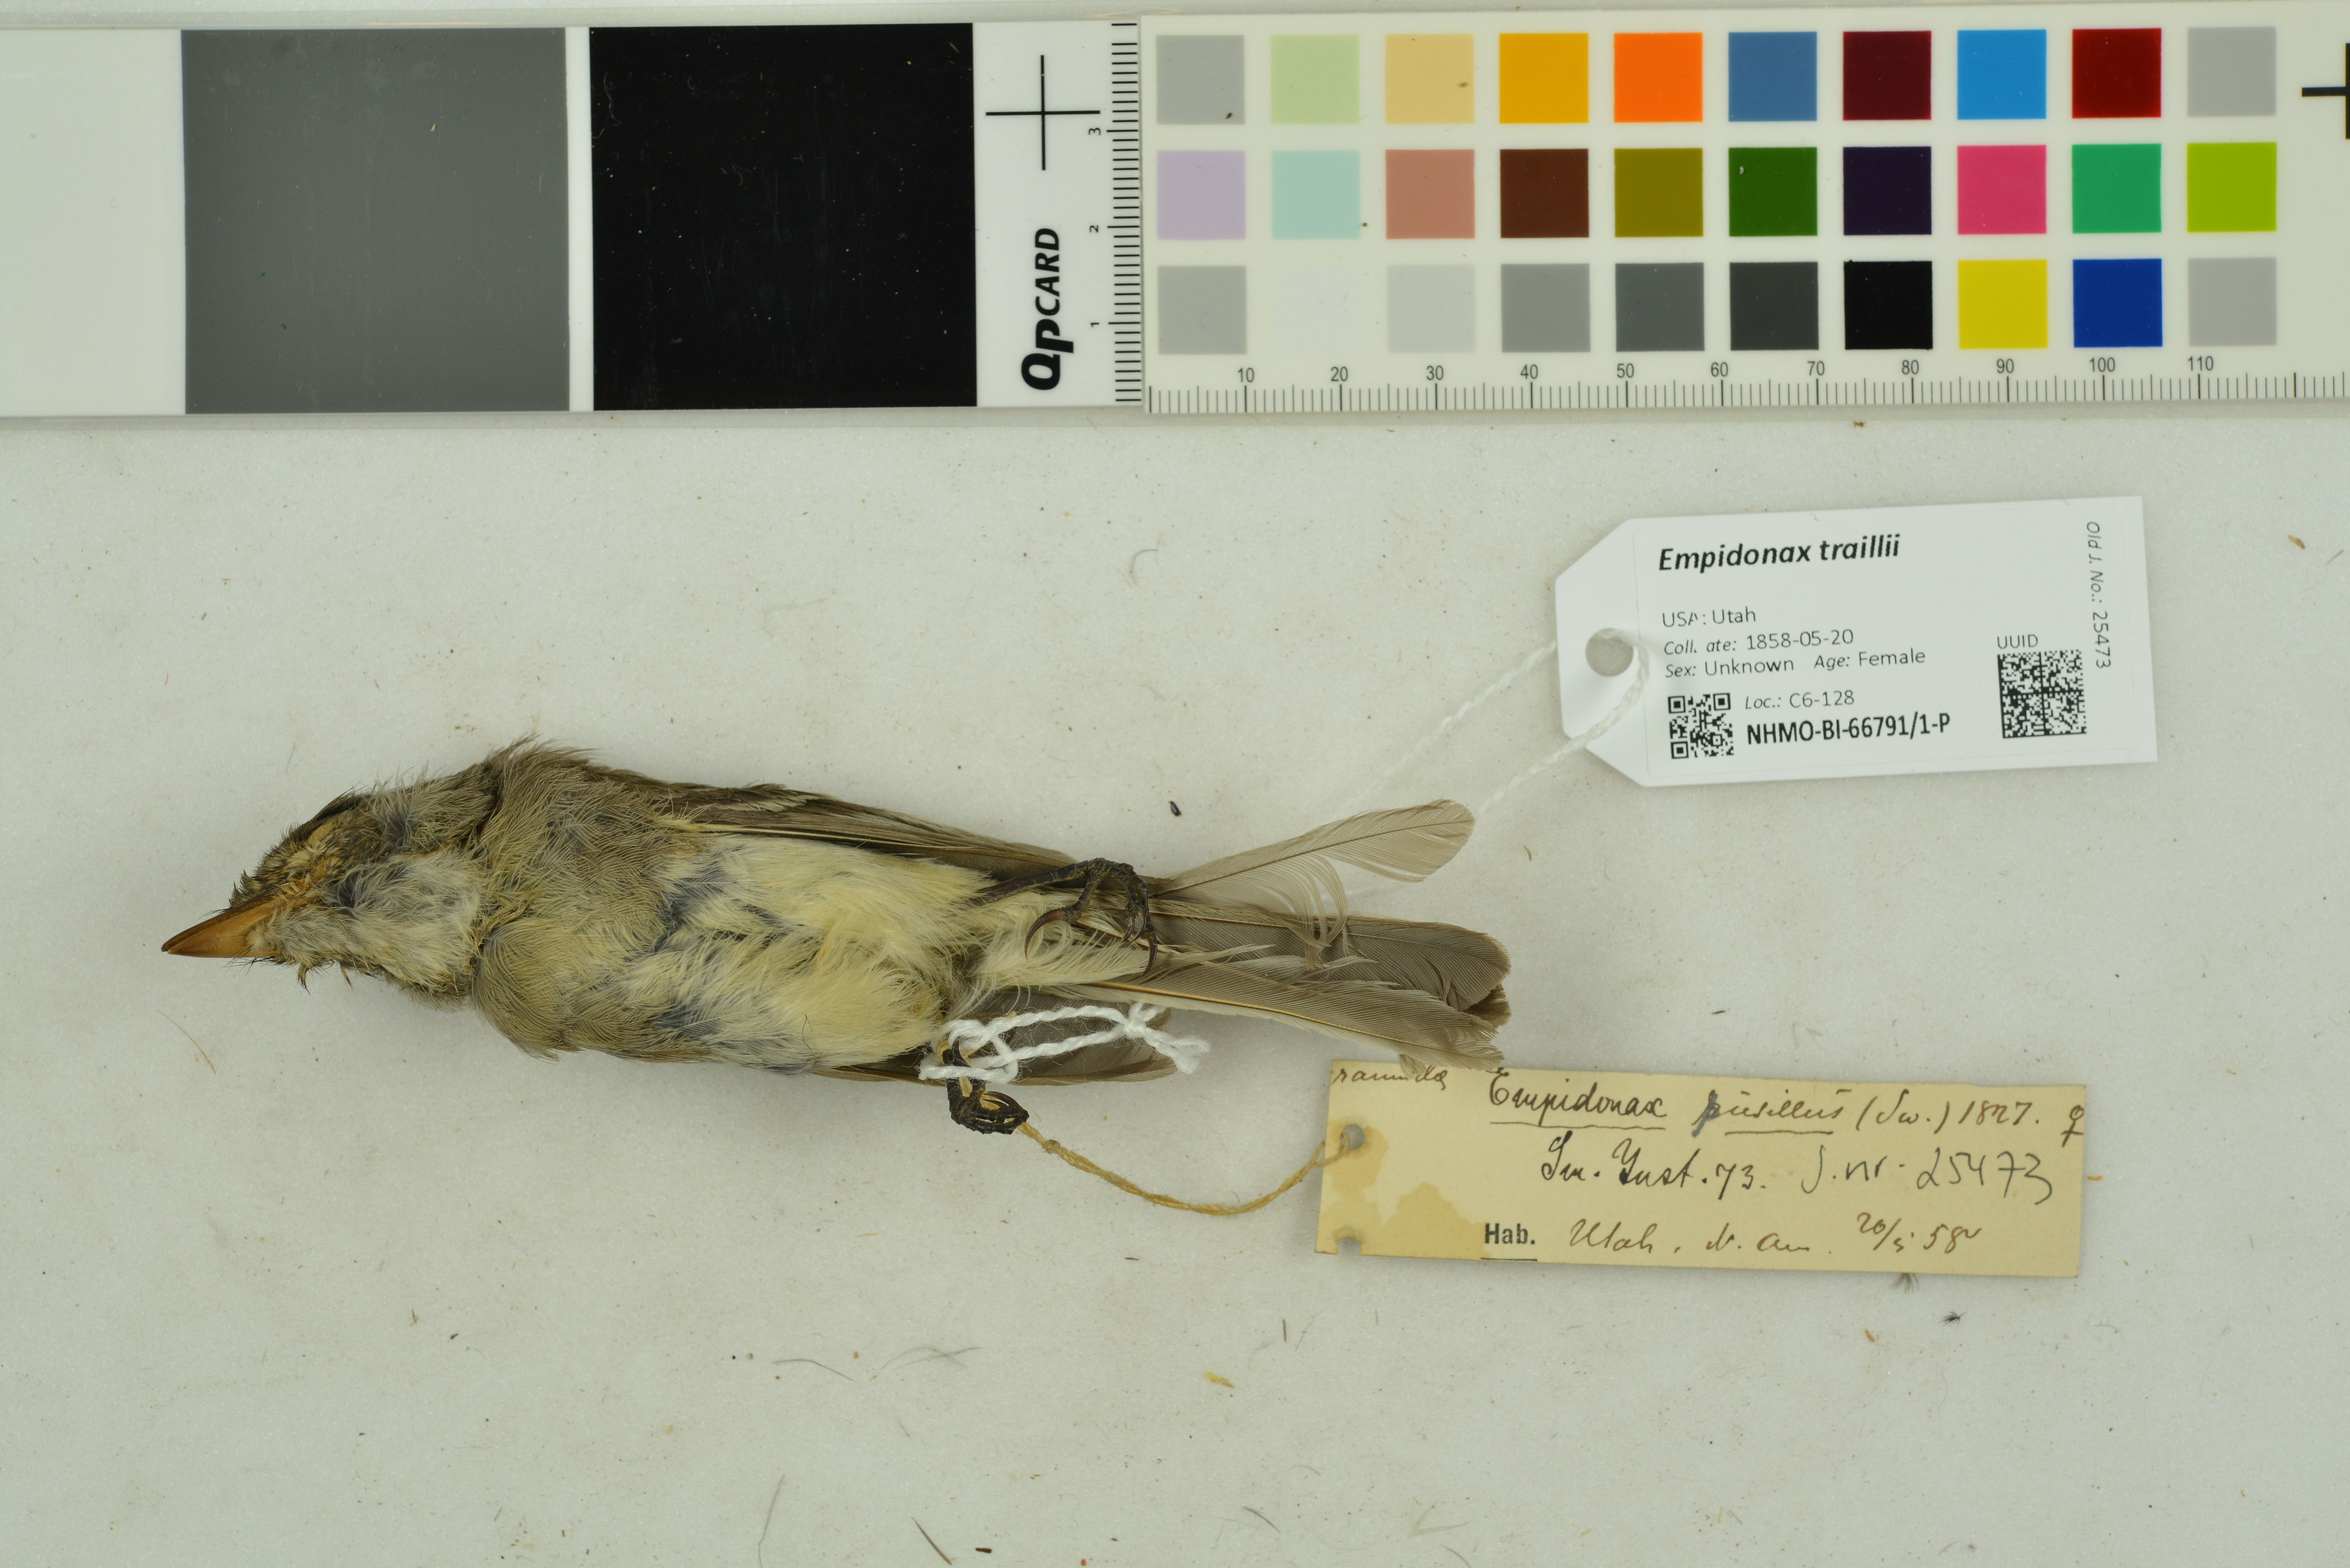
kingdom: Animalia
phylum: Chordata
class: Aves
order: Passeriformes
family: Tyrannidae
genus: Empidonax
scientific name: Empidonax traillii
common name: Willow flycatcher
